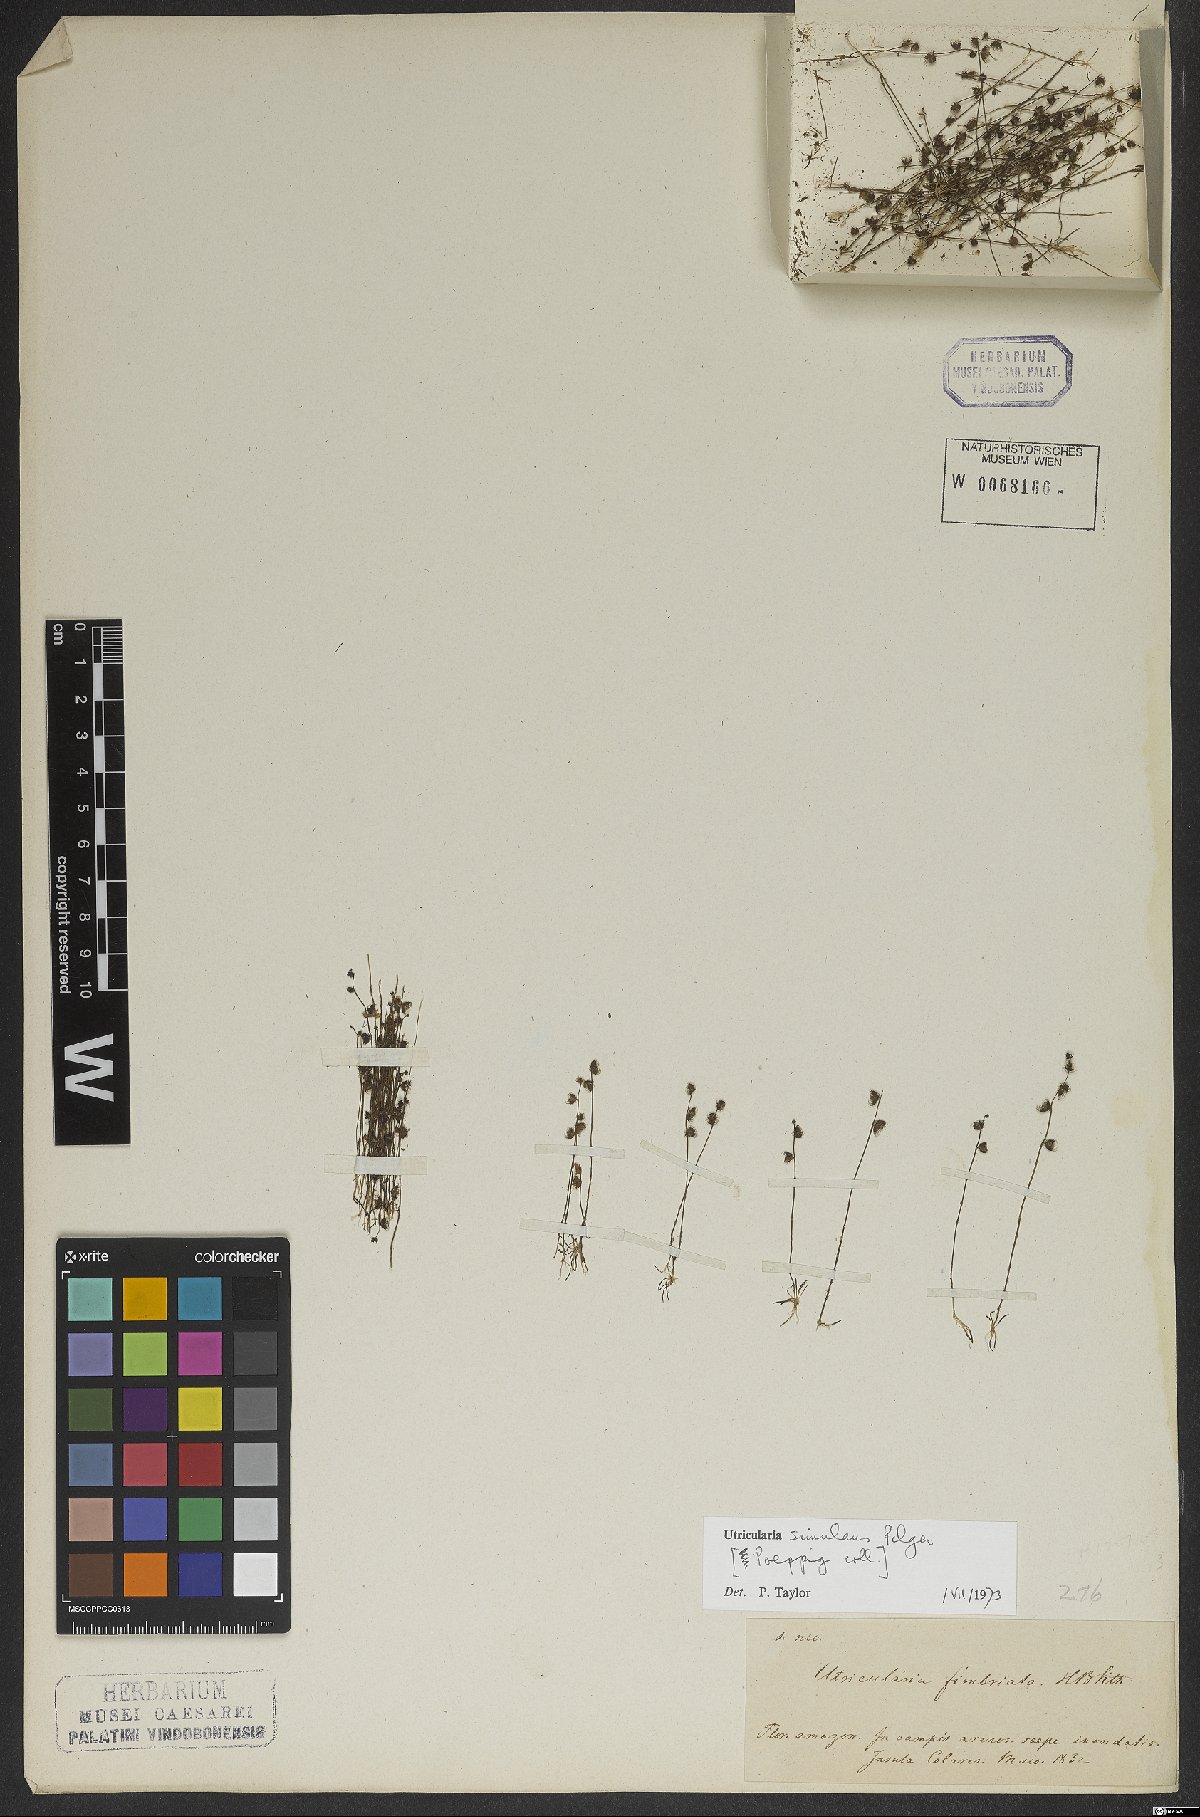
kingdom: Plantae
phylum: Tracheophyta
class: Magnoliopsida
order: Lamiales
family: Lentibulariaceae
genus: Utricularia
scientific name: Utricularia simulans
